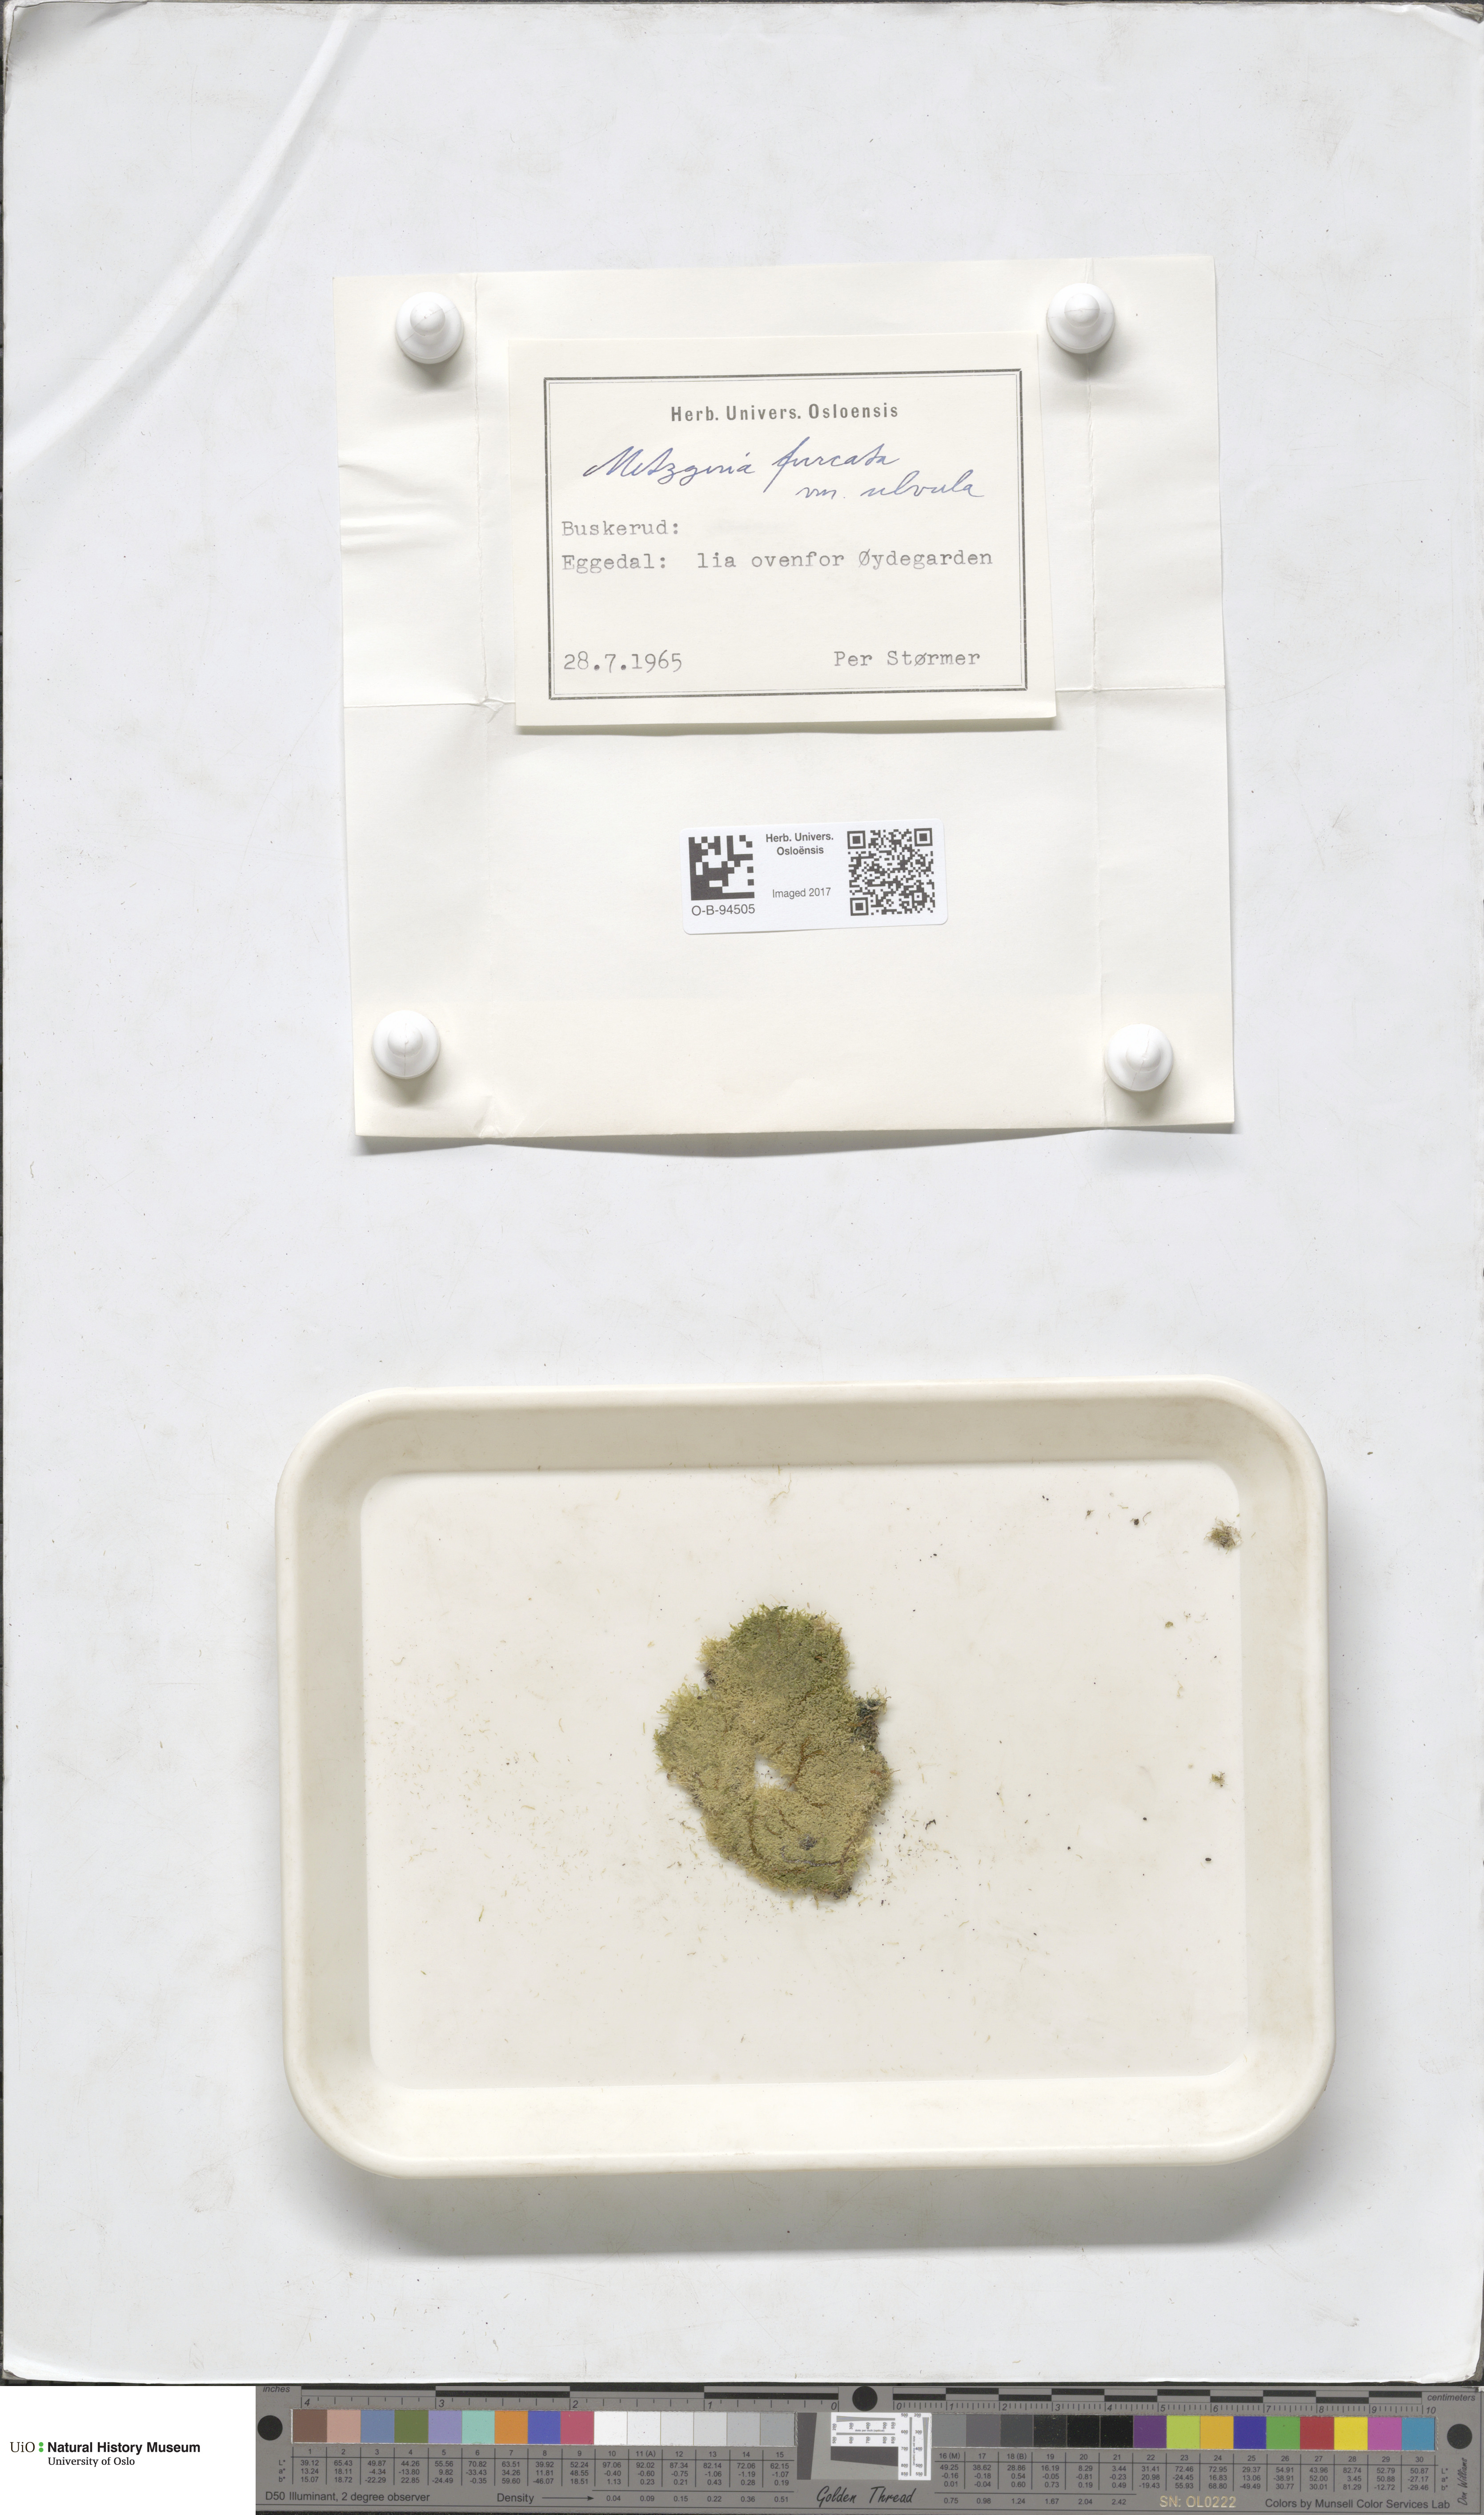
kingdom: Plantae
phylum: Marchantiophyta
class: Jungermanniopsida
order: Metzgeriales
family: Metzgeriaceae
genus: Metzgeria
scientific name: Metzgeria furcata
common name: Forked veilwort
